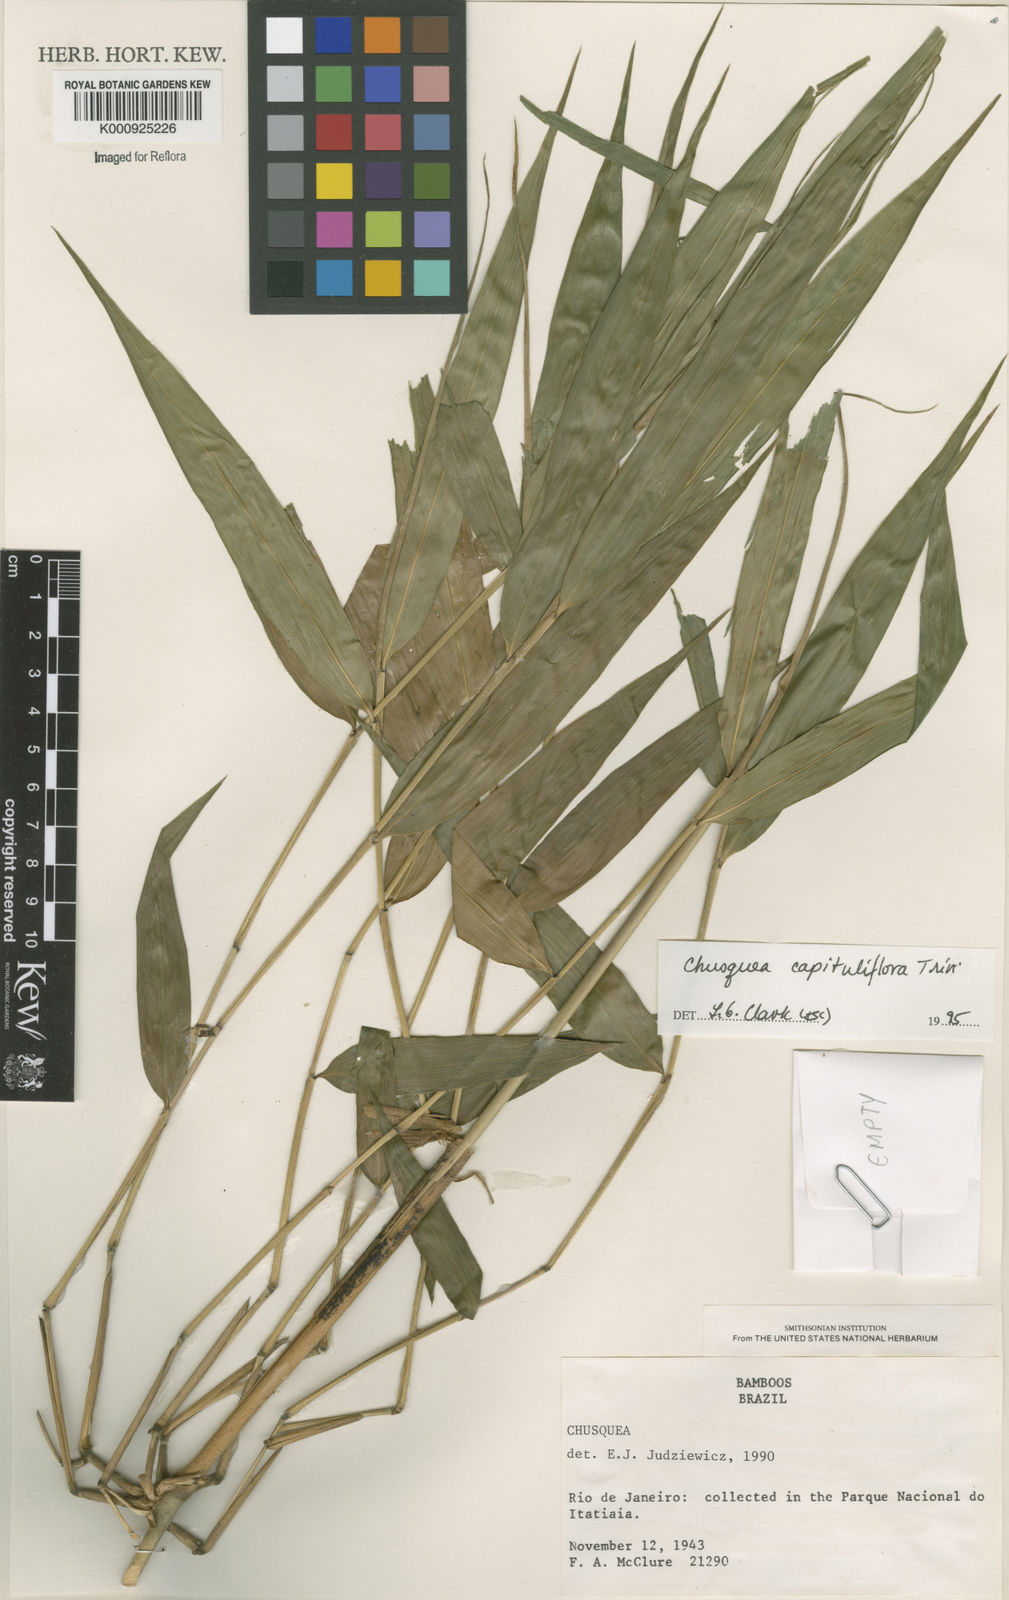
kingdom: Plantae
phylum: Tracheophyta
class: Liliopsida
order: Poales
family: Poaceae
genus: Chusquea
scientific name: Chusquea
